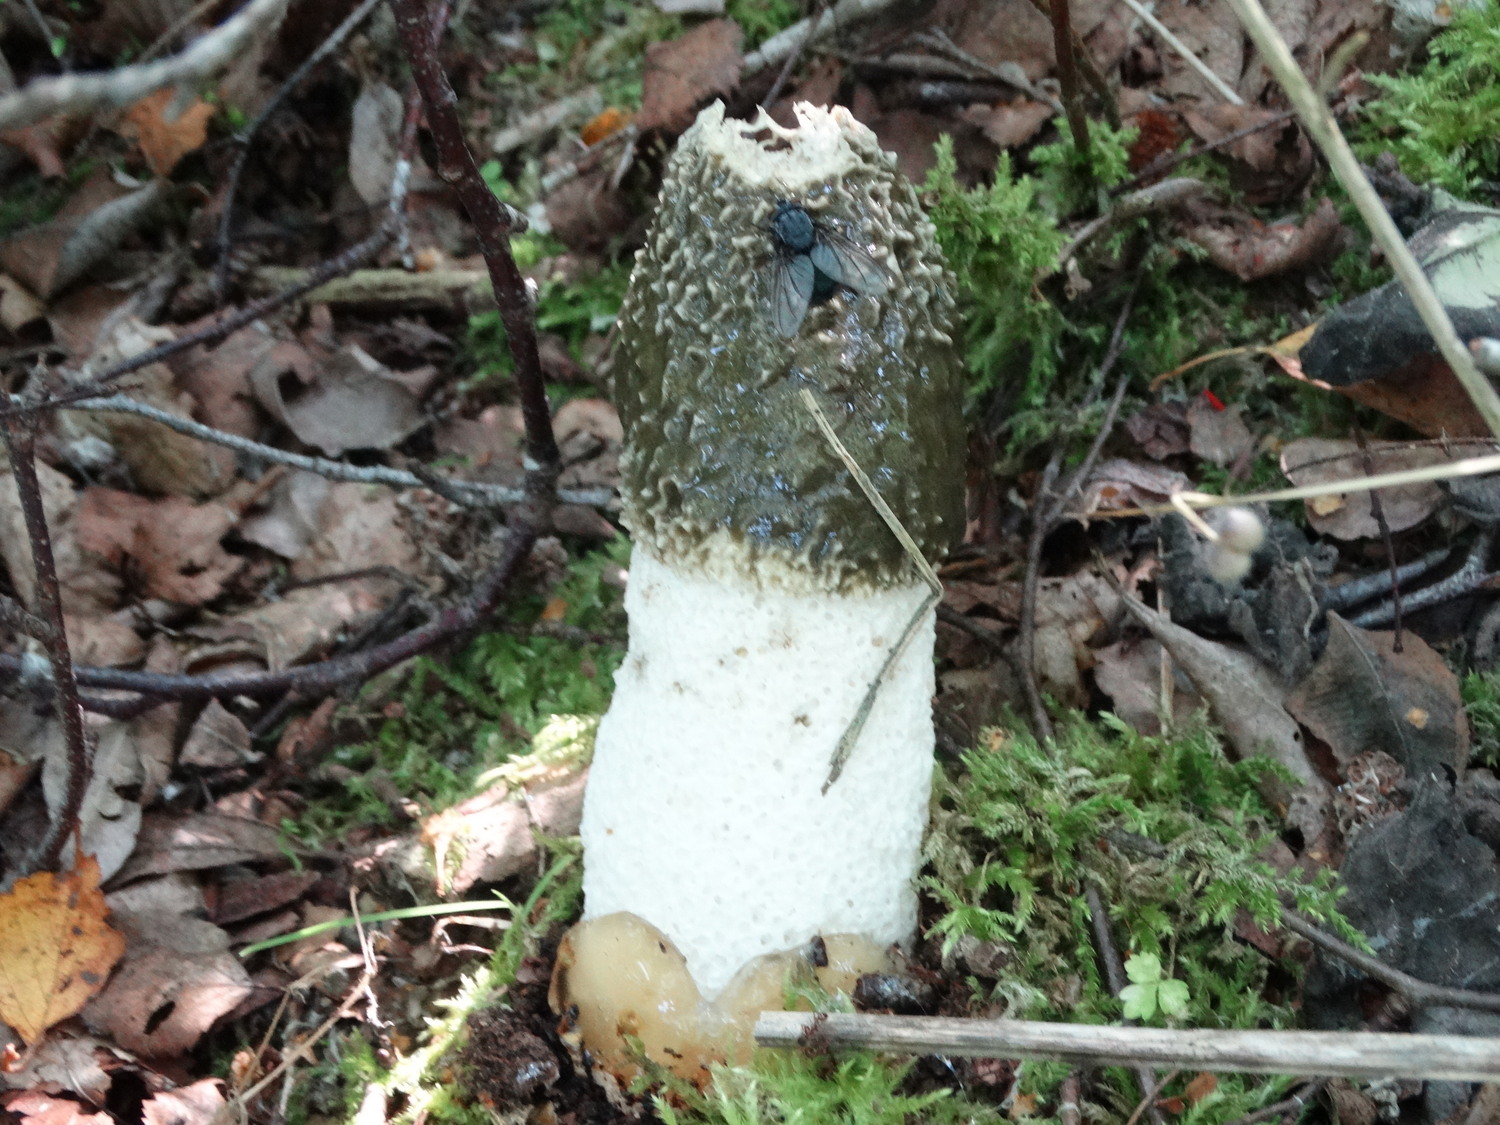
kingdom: Fungi
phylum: Basidiomycota
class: Agaricomycetes
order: Phallales
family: Phallaceae
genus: Phallus
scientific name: Phallus impudicus
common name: almindelig stinksvamp
